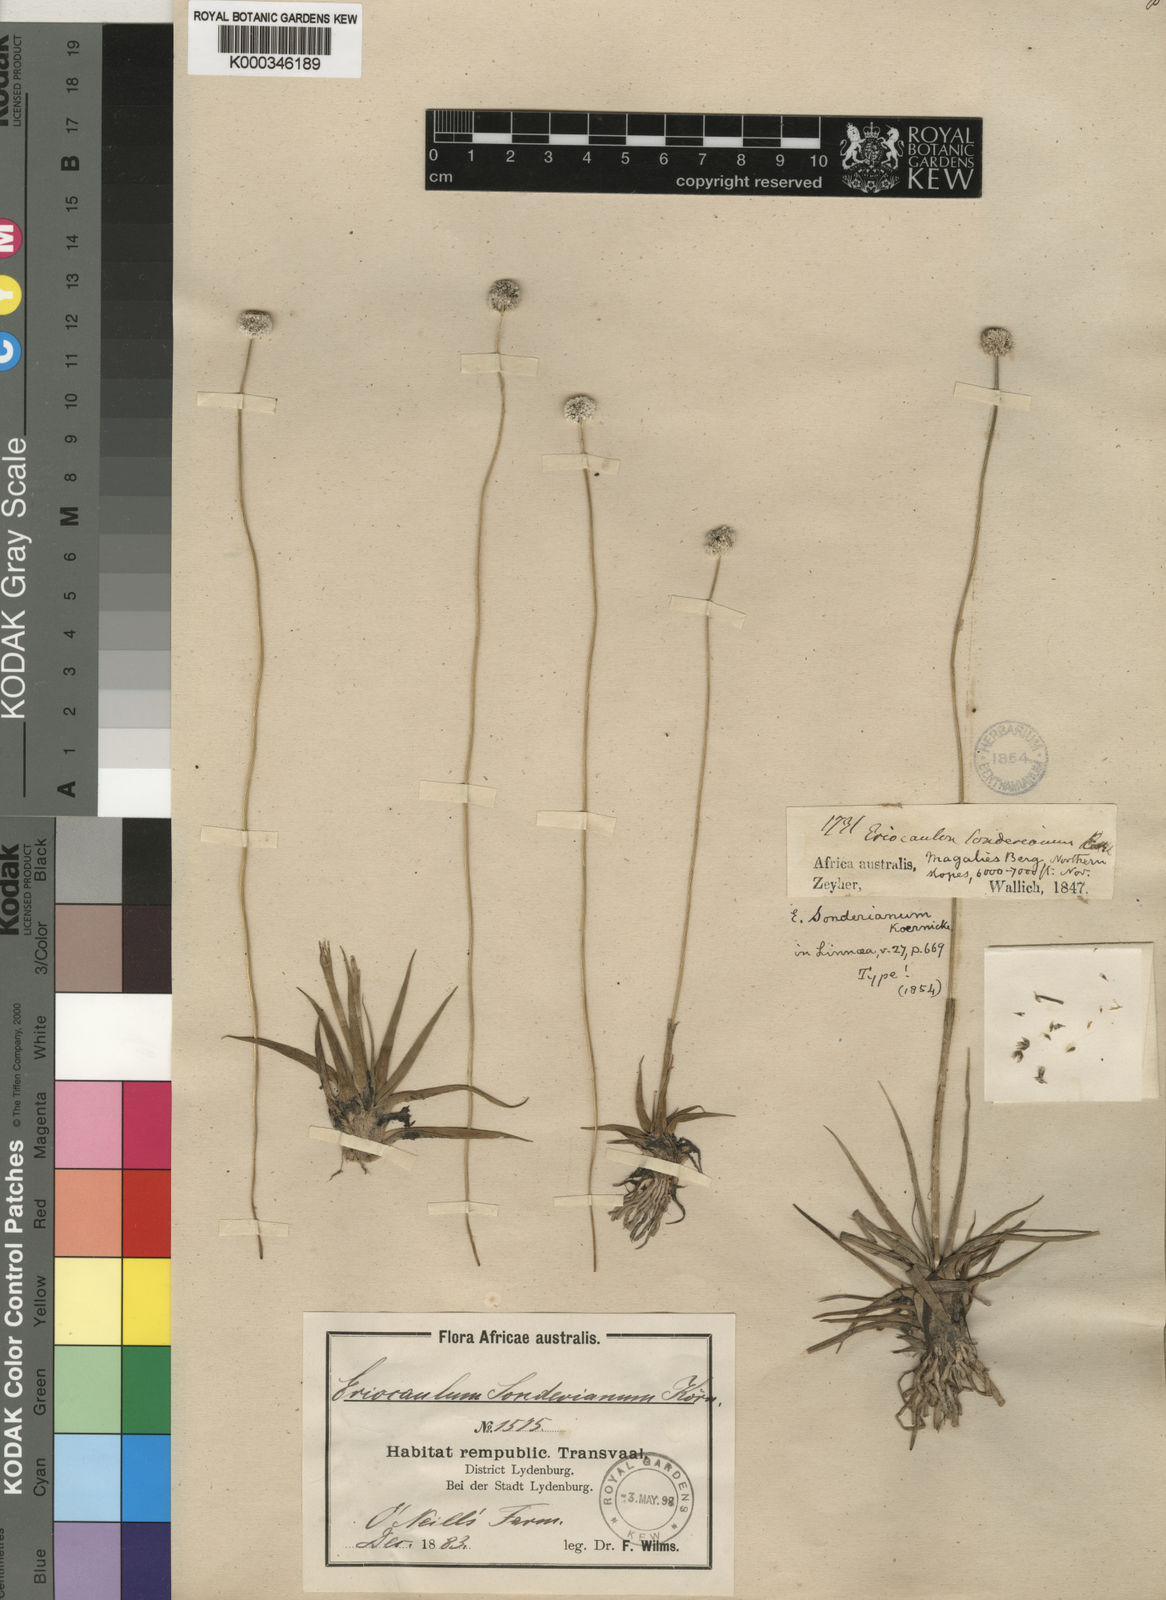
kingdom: Plantae
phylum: Tracheophyta
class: Liliopsida
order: Poales
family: Eriocaulaceae
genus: Eriocaulon
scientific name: Eriocaulon
